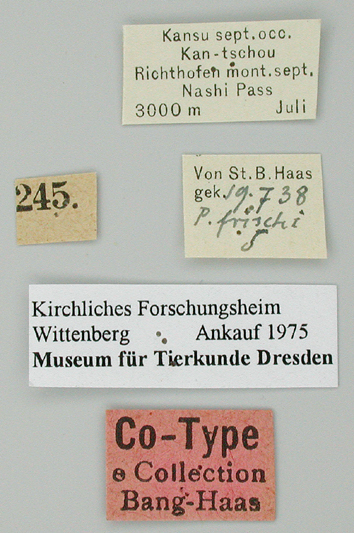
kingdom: Animalia
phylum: Arthropoda
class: Insecta
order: Lepidoptera
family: Papilionidae
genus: Parnassius
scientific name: Parnassius actius
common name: Scarce red apollo
